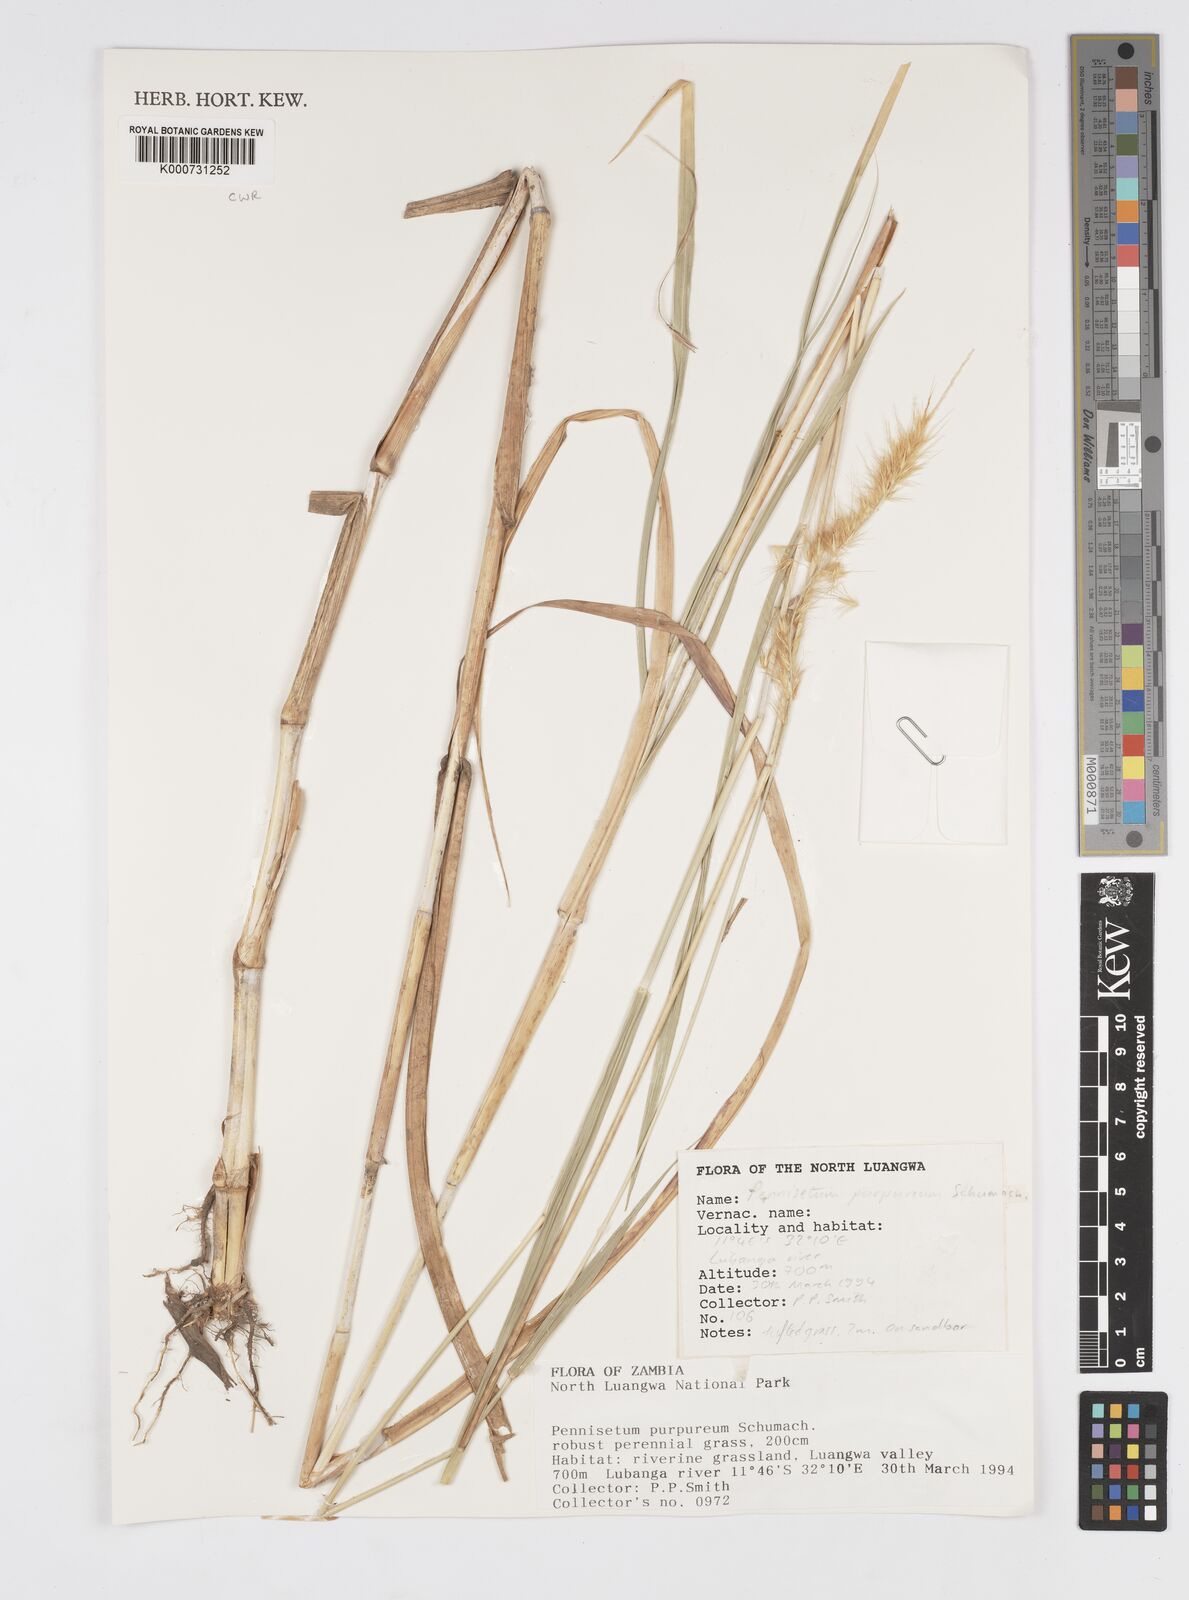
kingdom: Plantae
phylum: Tracheophyta
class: Liliopsida
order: Poales
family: Poaceae
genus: Cenchrus
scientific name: Cenchrus purpureus
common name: Elephant grass
